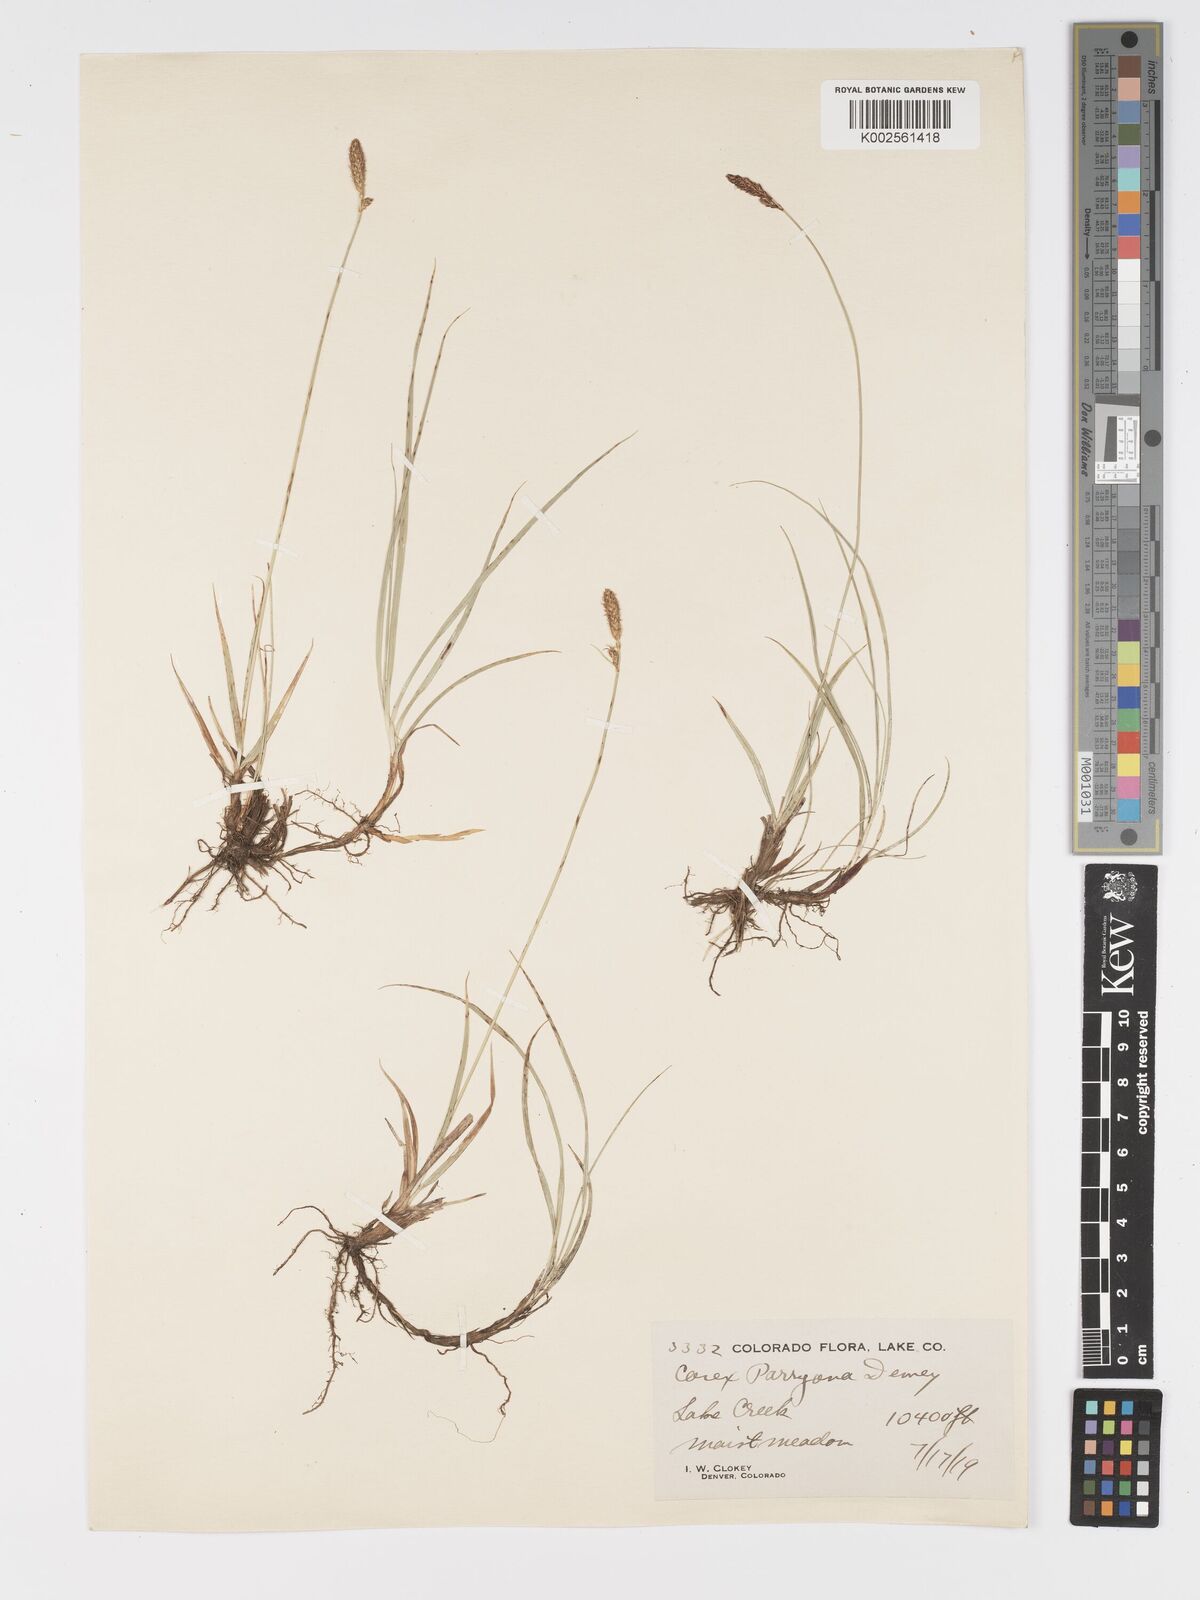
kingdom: Plantae
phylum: Tracheophyta
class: Liliopsida
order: Poales
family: Cyperaceae
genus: Carex
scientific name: Carex hallii
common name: Deer sedge
